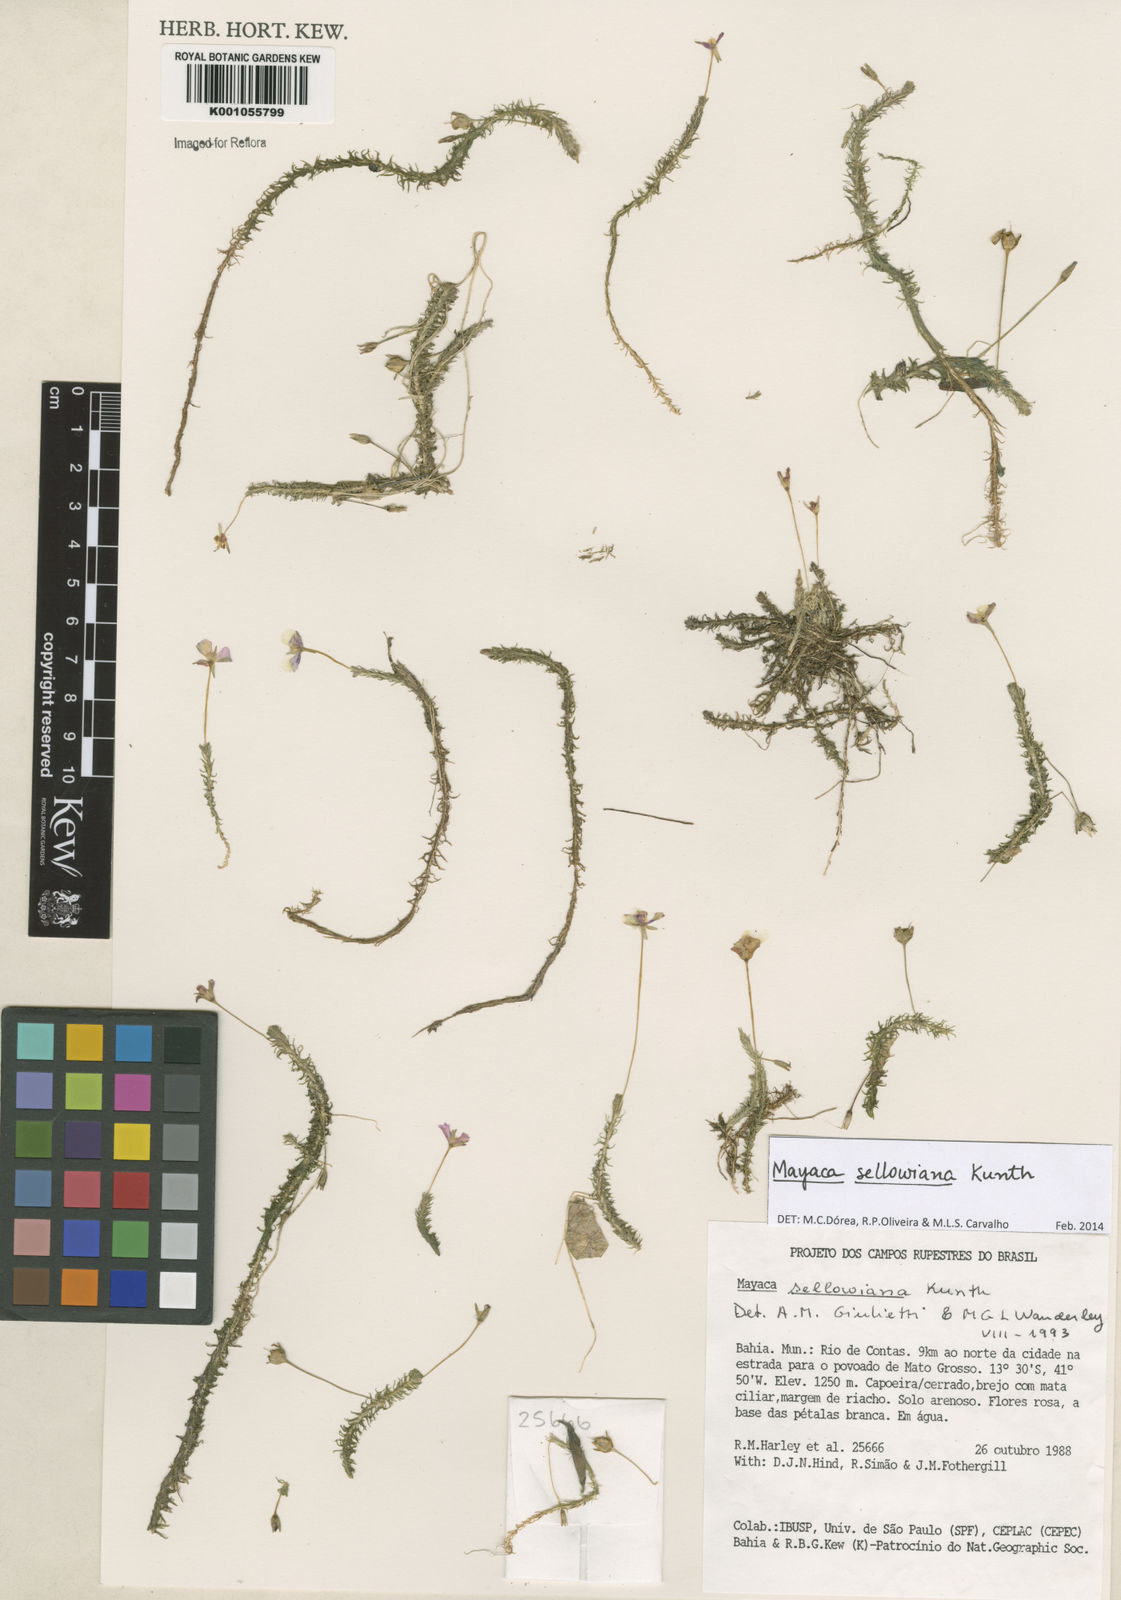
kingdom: Plantae
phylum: Tracheophyta
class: Liliopsida
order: Poales
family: Mayacaceae
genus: Mayaca
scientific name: Mayaca sellowiana
